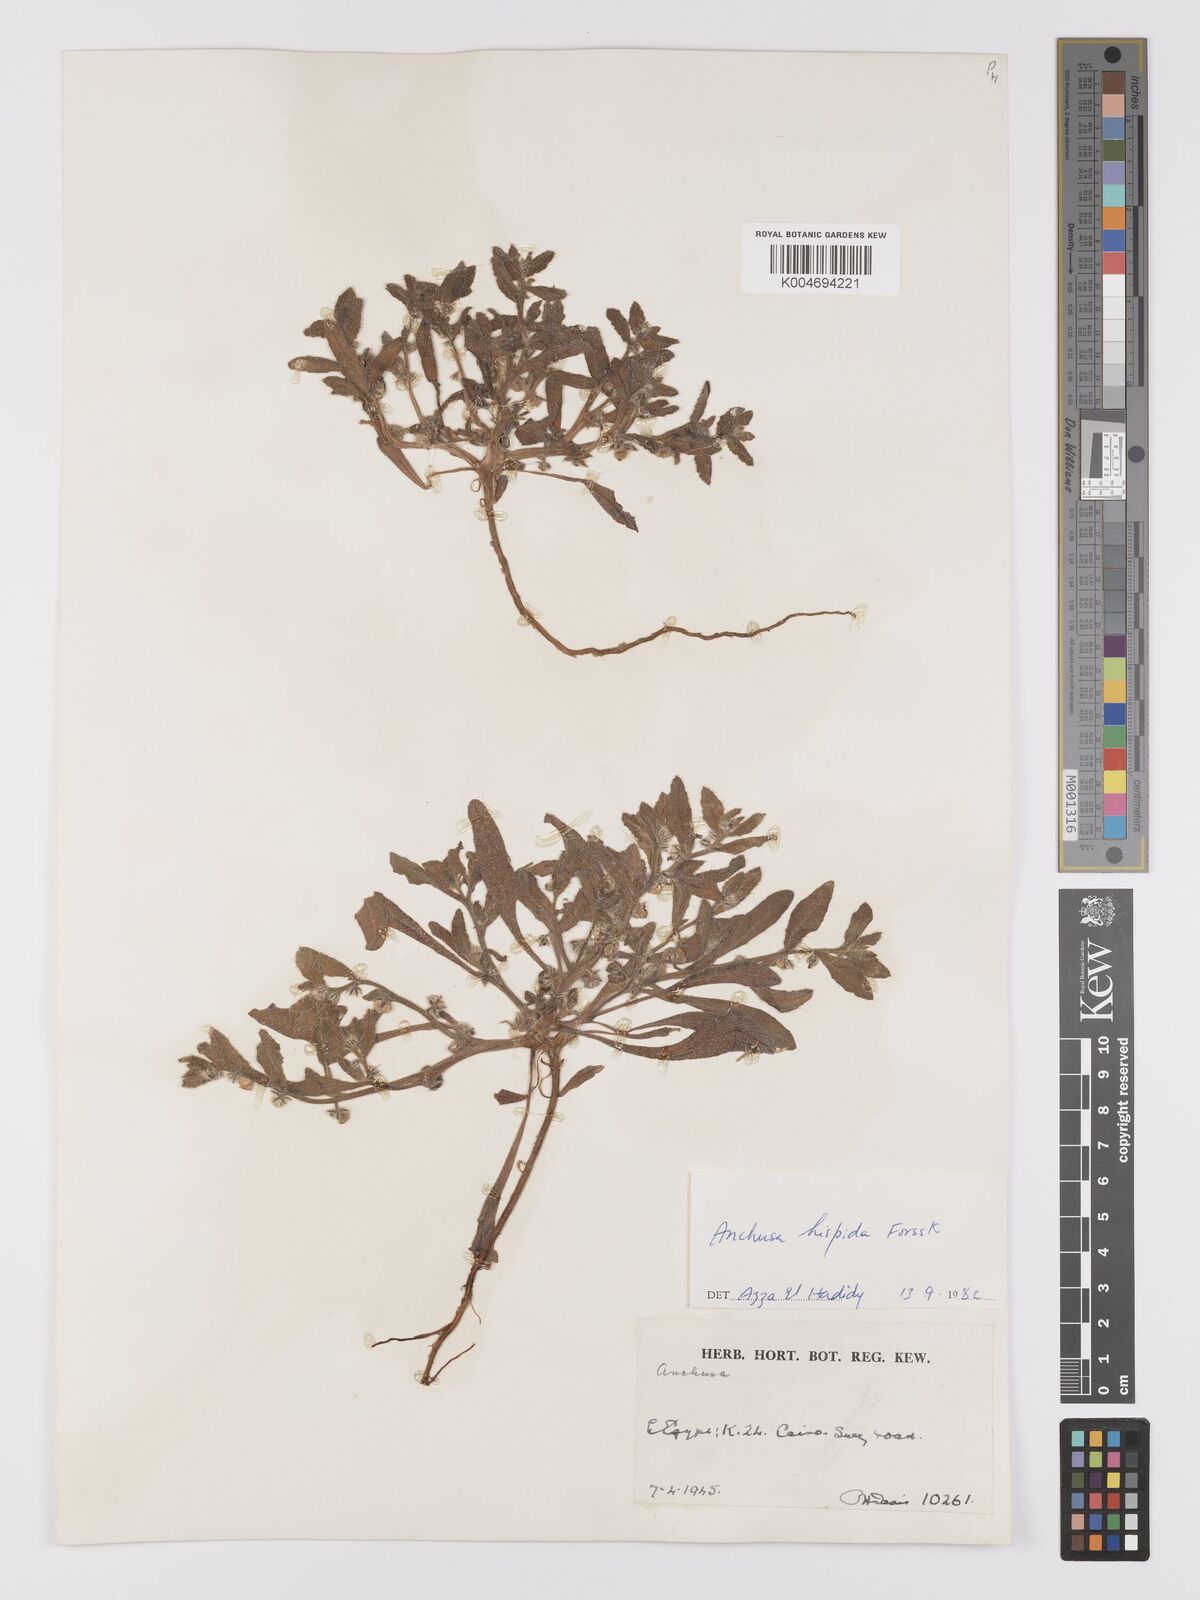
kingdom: Plantae
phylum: Tracheophyta
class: Magnoliopsida
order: Boraginales
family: Boraginaceae
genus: Gastrocotyle
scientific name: Gastrocotyle hispida
